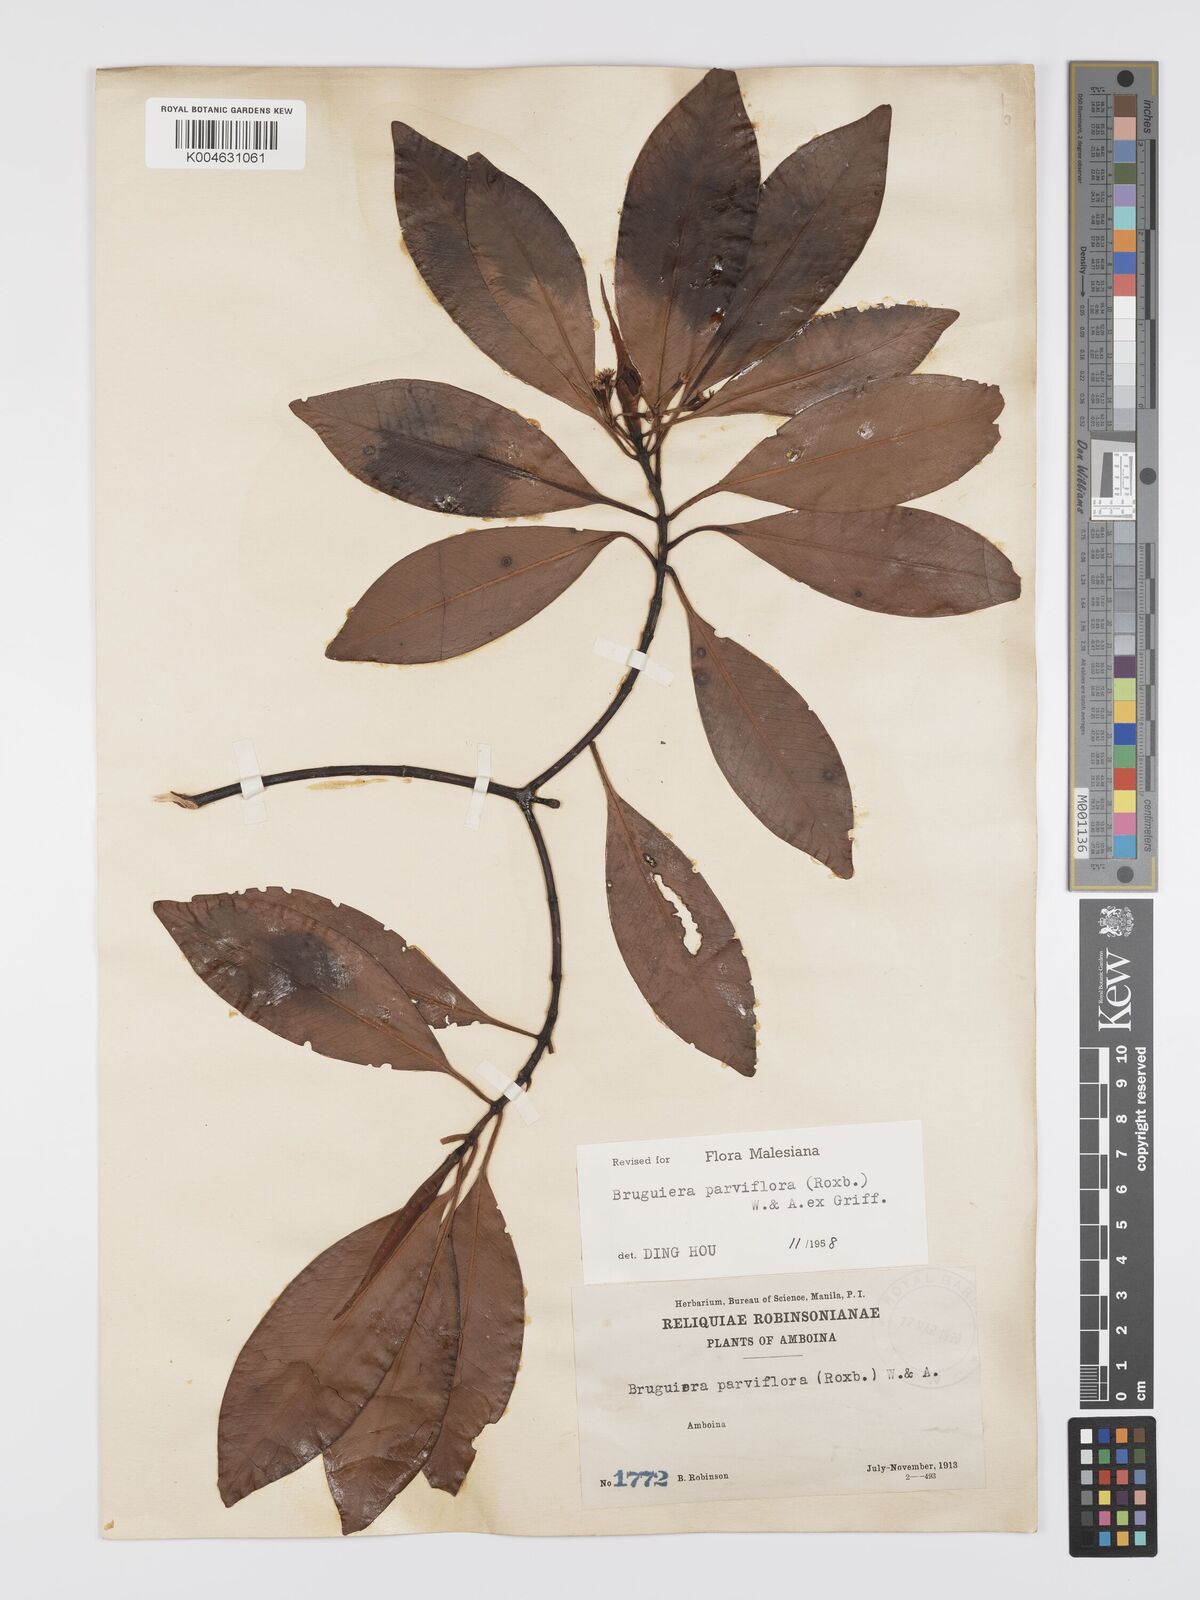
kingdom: Plantae
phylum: Tracheophyta
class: Magnoliopsida
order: Malpighiales
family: Rhizophoraceae
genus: Bruguiera
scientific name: Bruguiera parviflora
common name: Smallflower bruguiera
